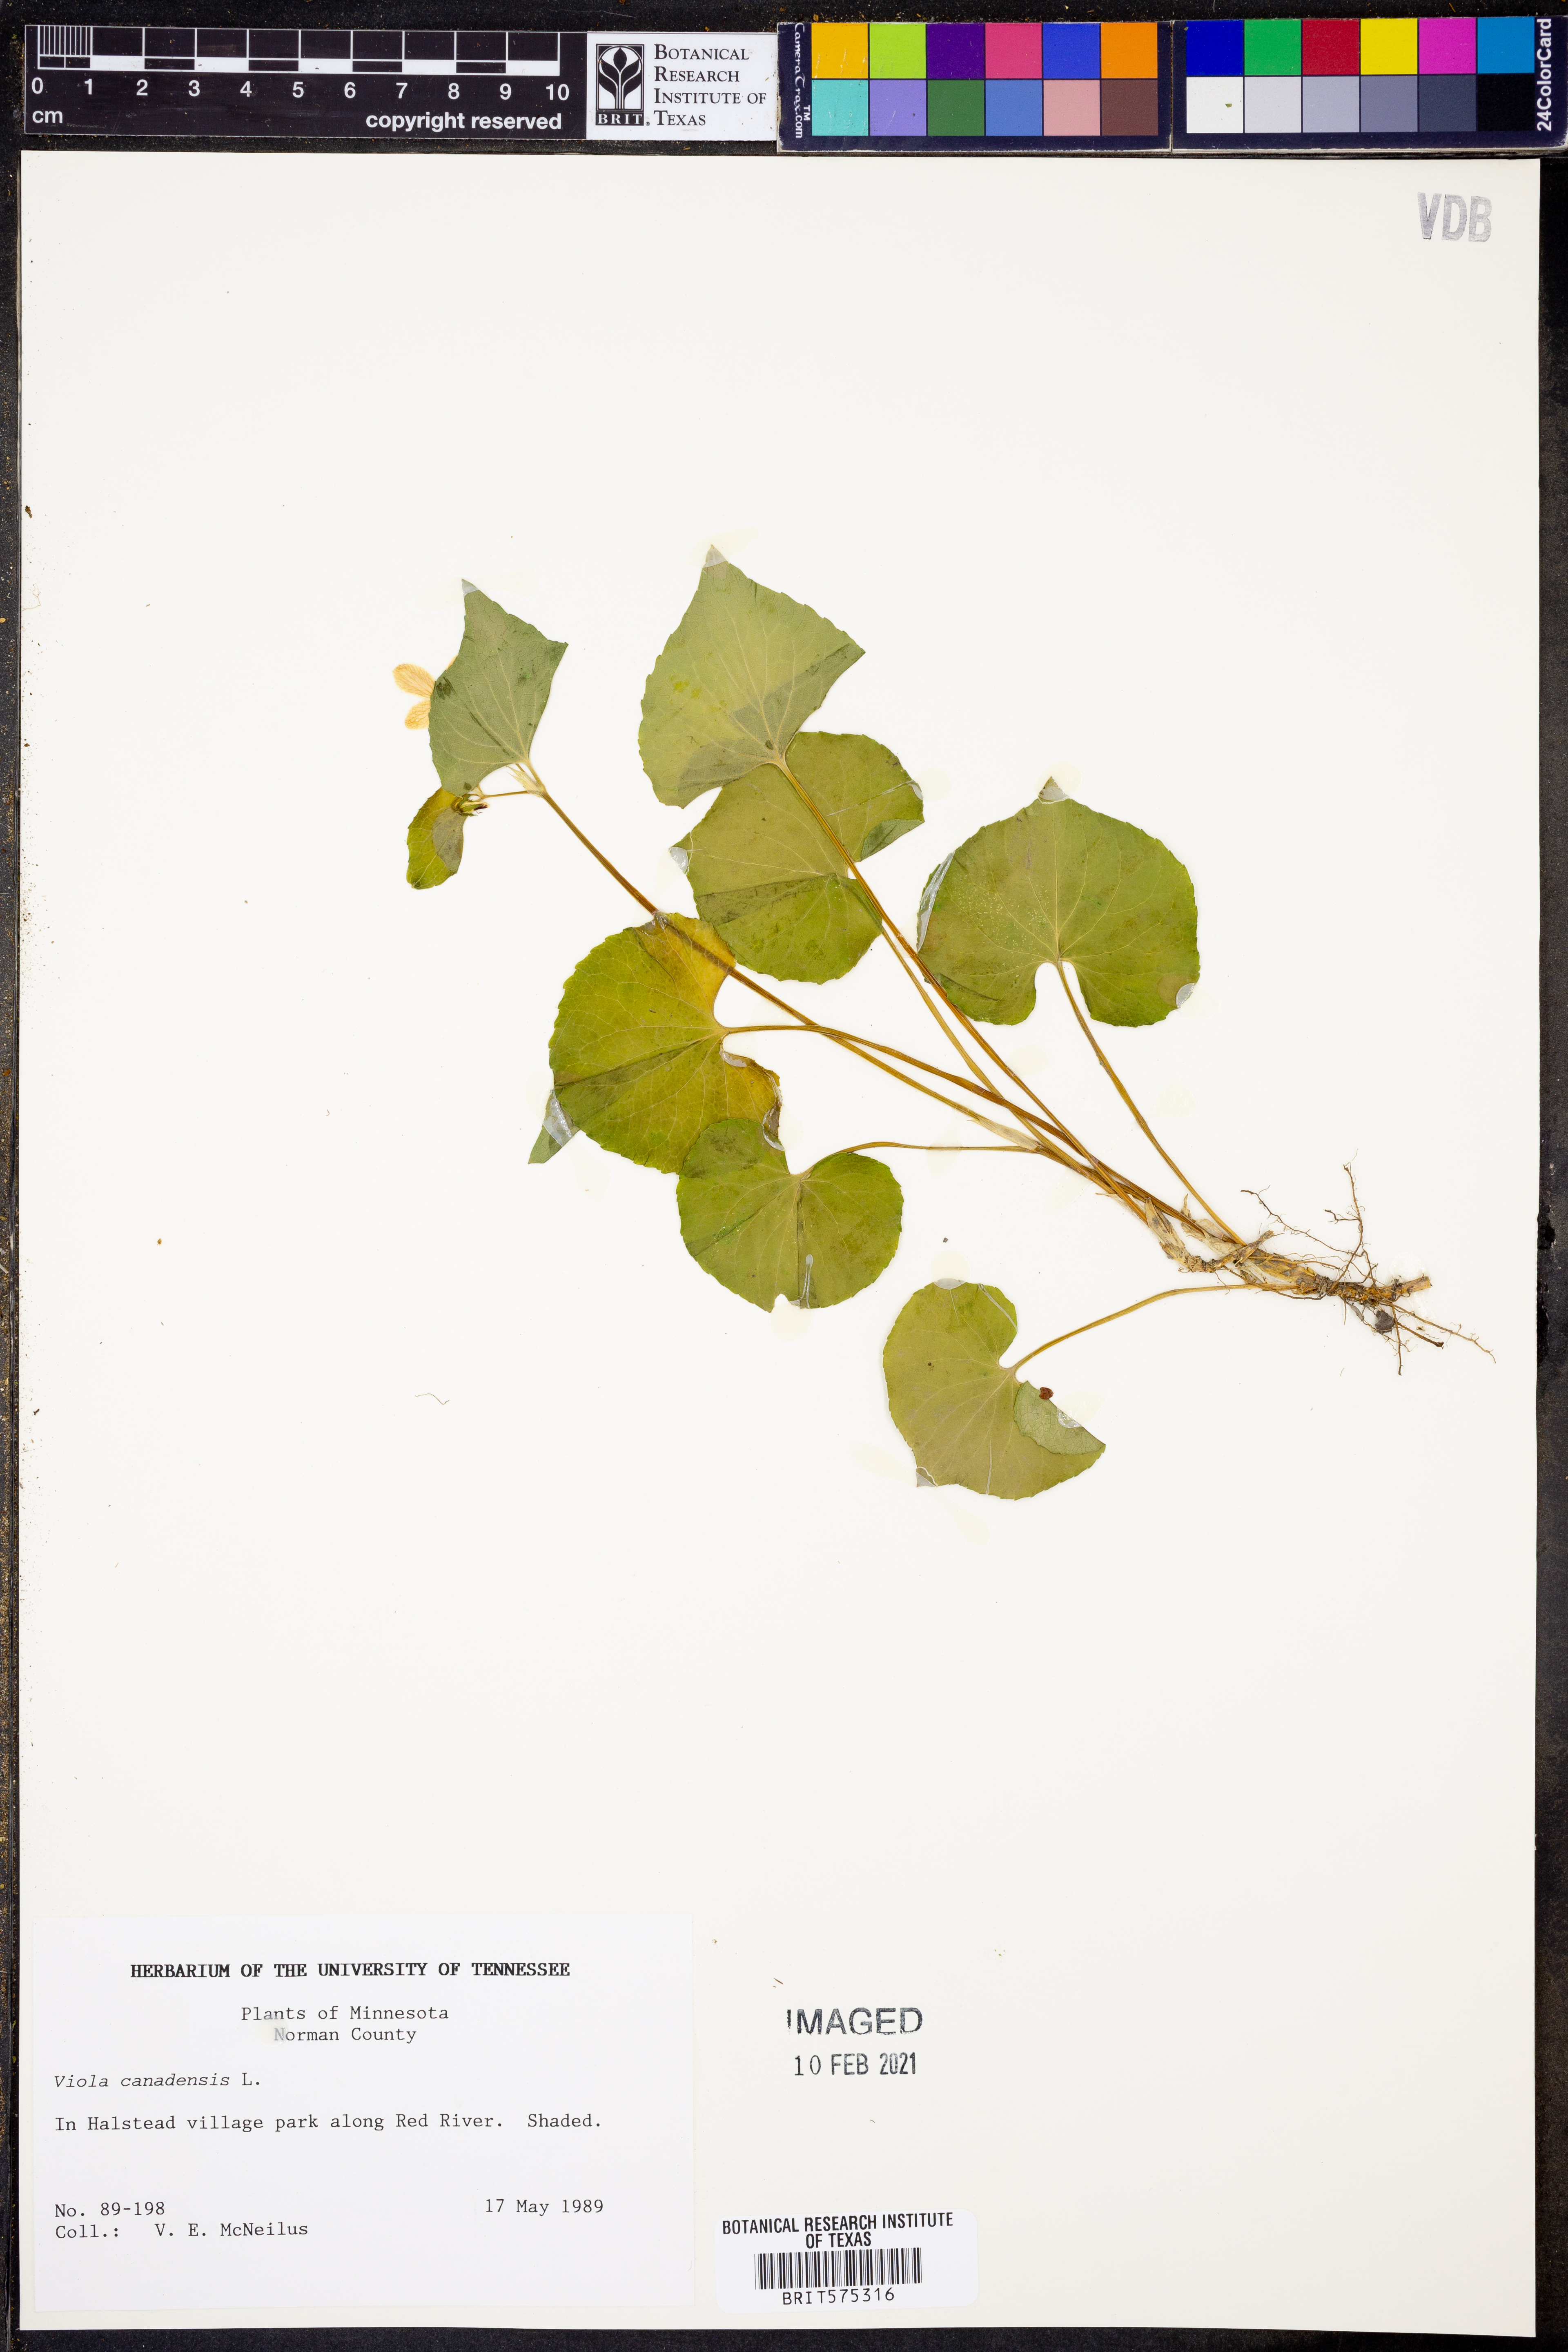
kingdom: Plantae
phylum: Tracheophyta
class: Magnoliopsida
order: Malpighiales
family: Violaceae
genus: Viola
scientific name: Viola canadensis
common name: Canada violet
